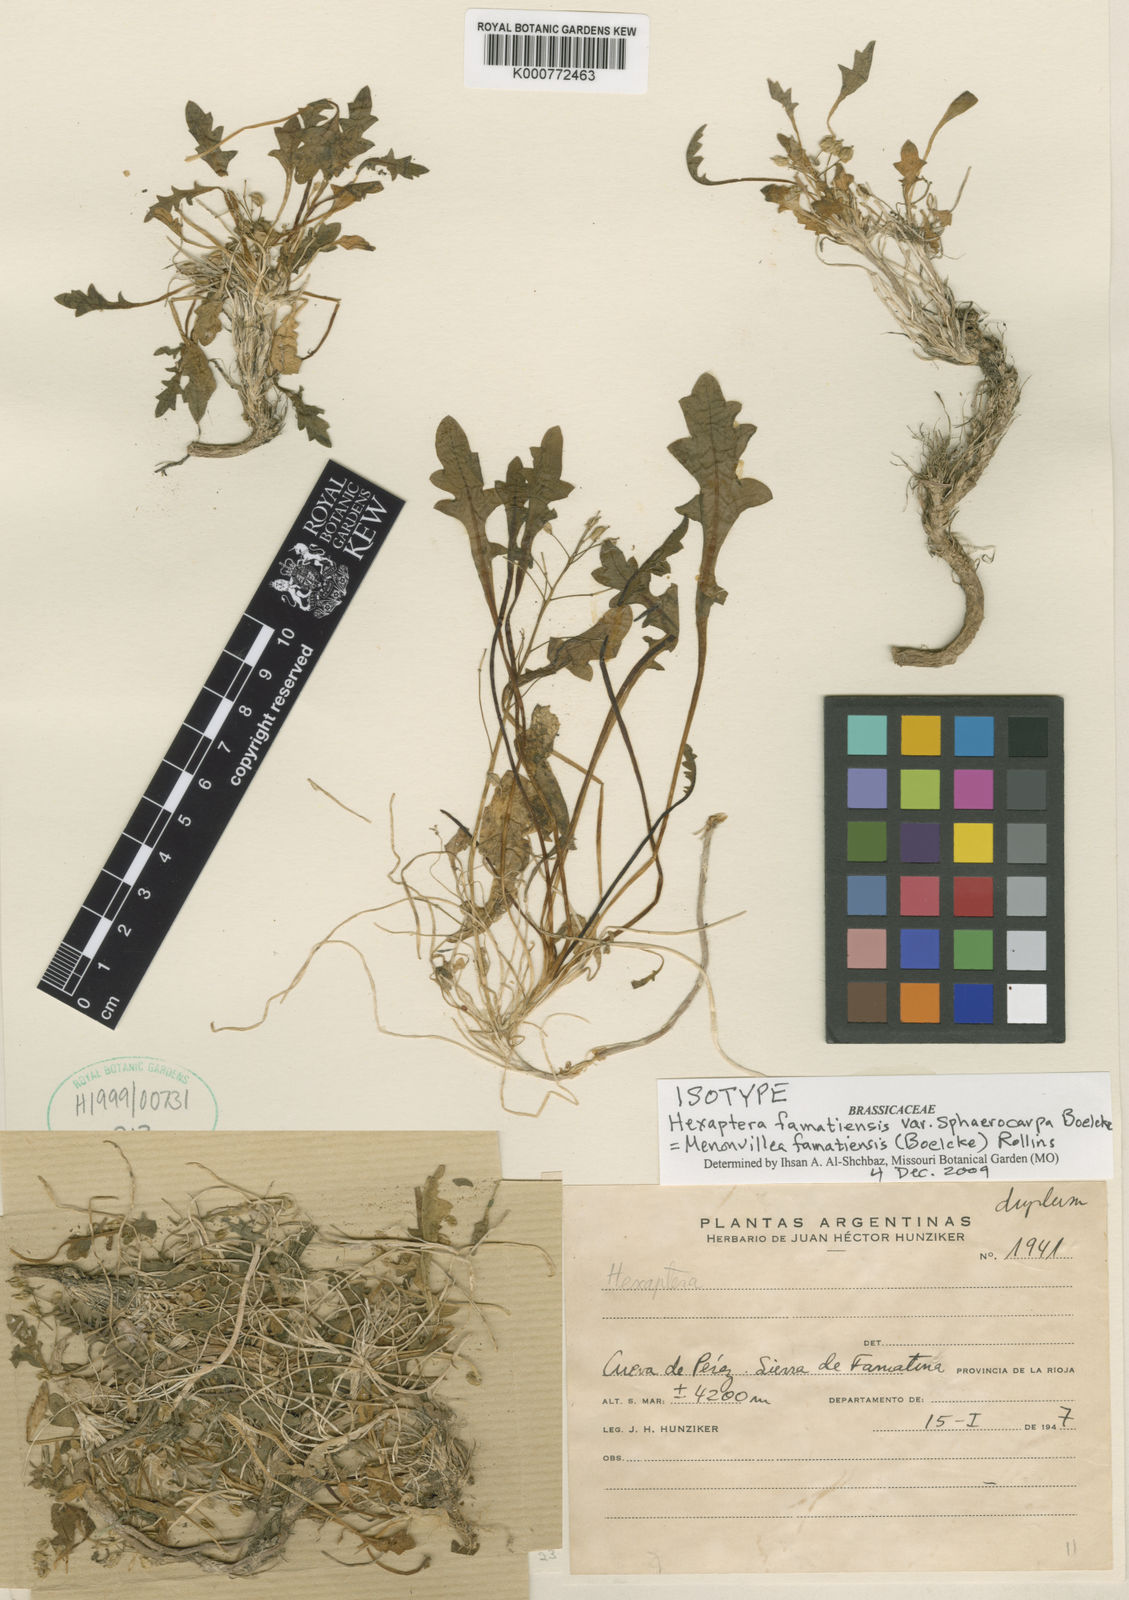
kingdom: Plantae
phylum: Tracheophyta
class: Magnoliopsida
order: Brassicales
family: Brassicaceae
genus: Menonvillea
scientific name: Menonvillea famatinensis
